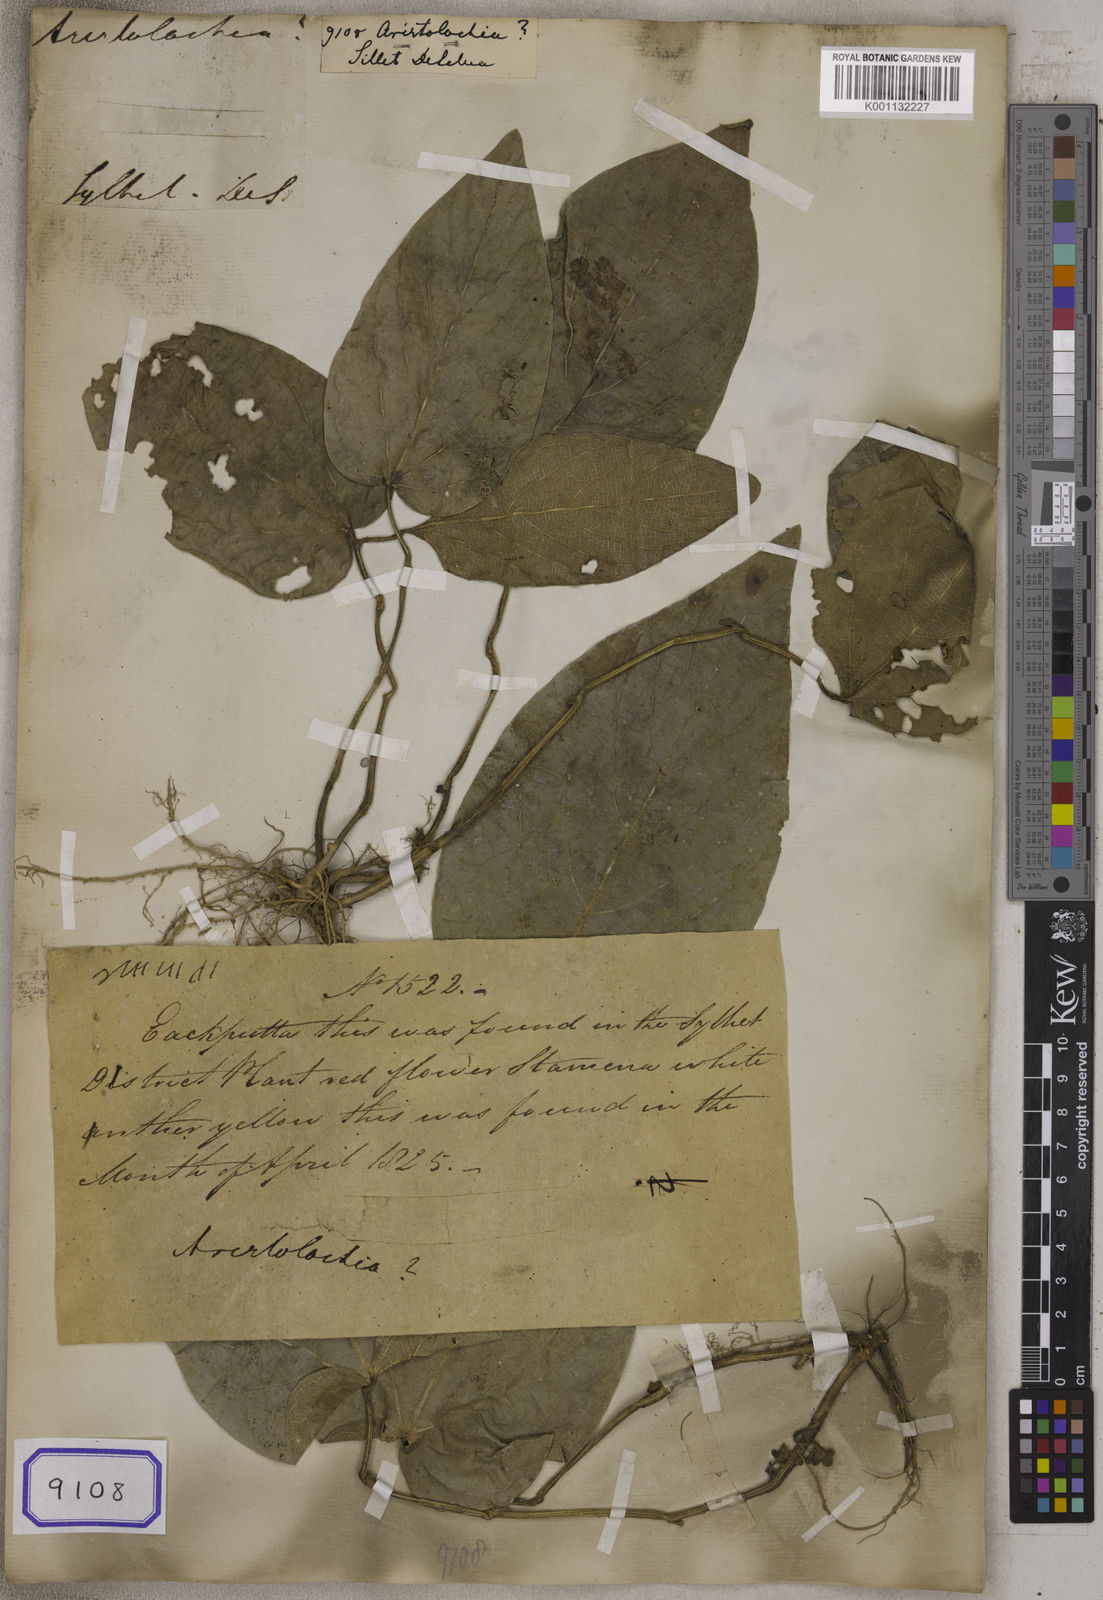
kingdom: Plantae
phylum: Tracheophyta
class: Magnoliopsida
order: Piperales
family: Aristolochiaceae
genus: Aristolochia
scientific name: Aristolochia
